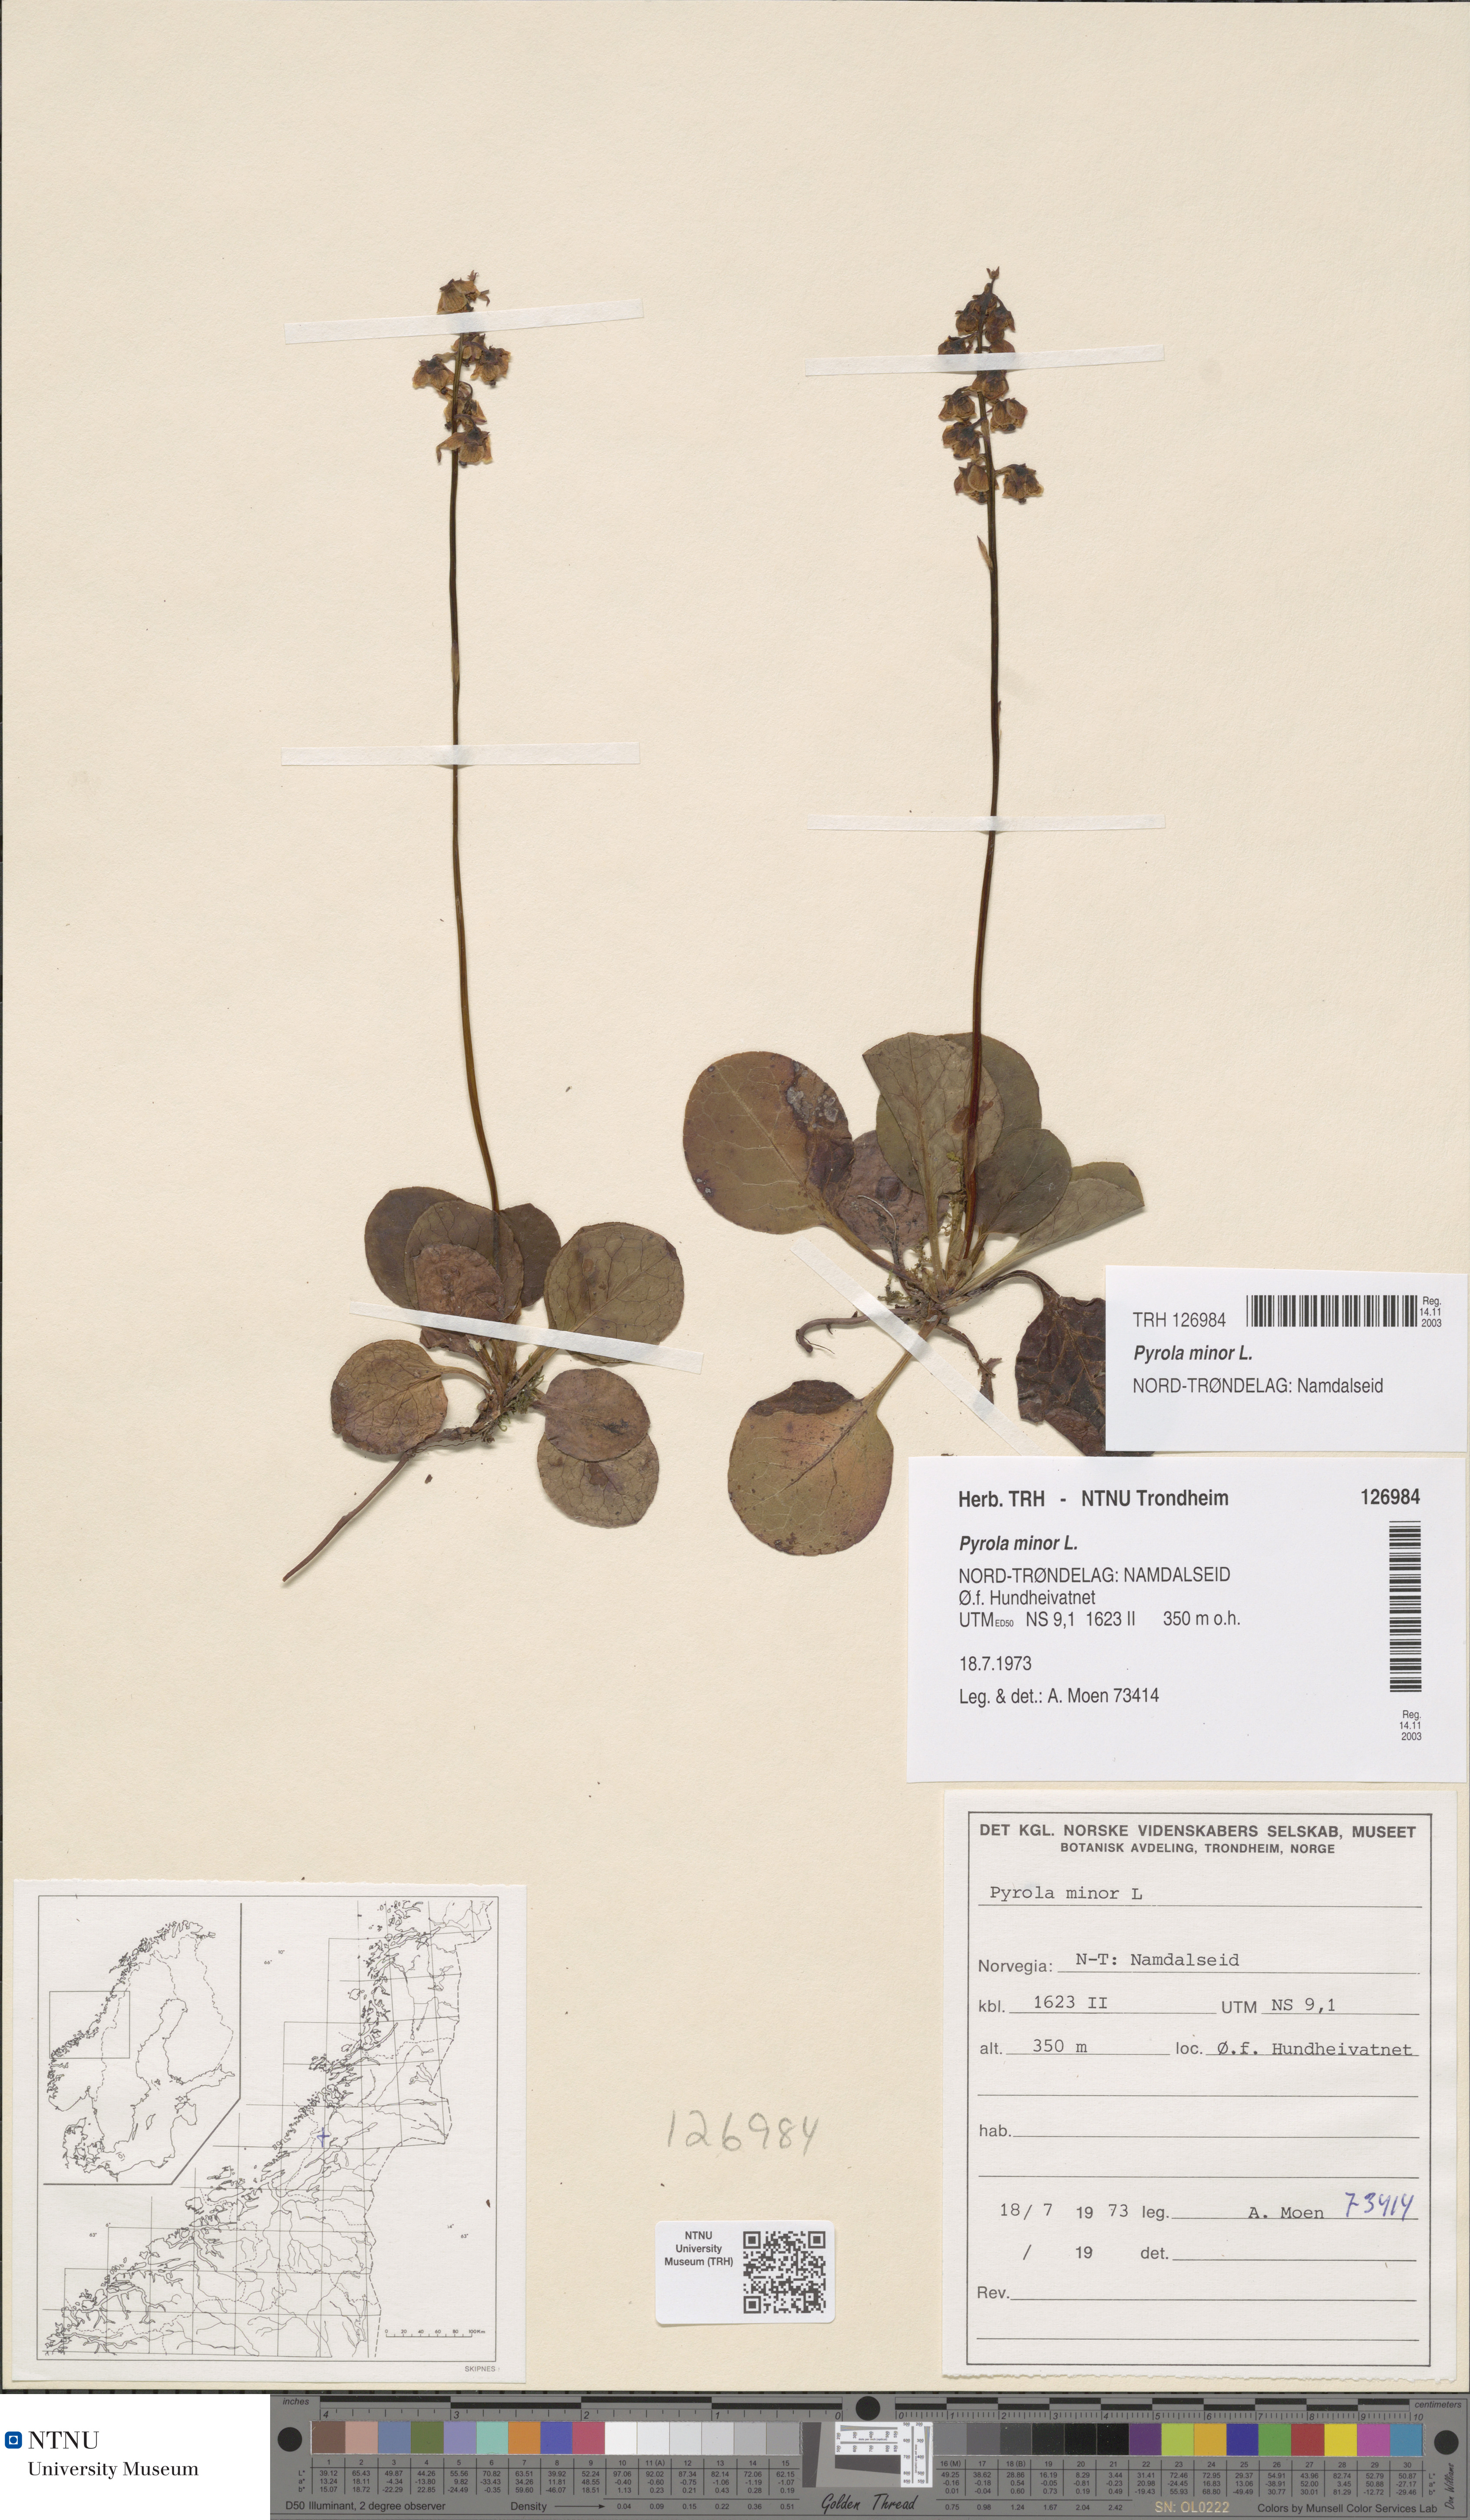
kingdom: Plantae
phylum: Tracheophyta
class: Magnoliopsida
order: Ericales
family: Ericaceae
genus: Pyrola
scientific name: Pyrola minor
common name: Common wintergreen
